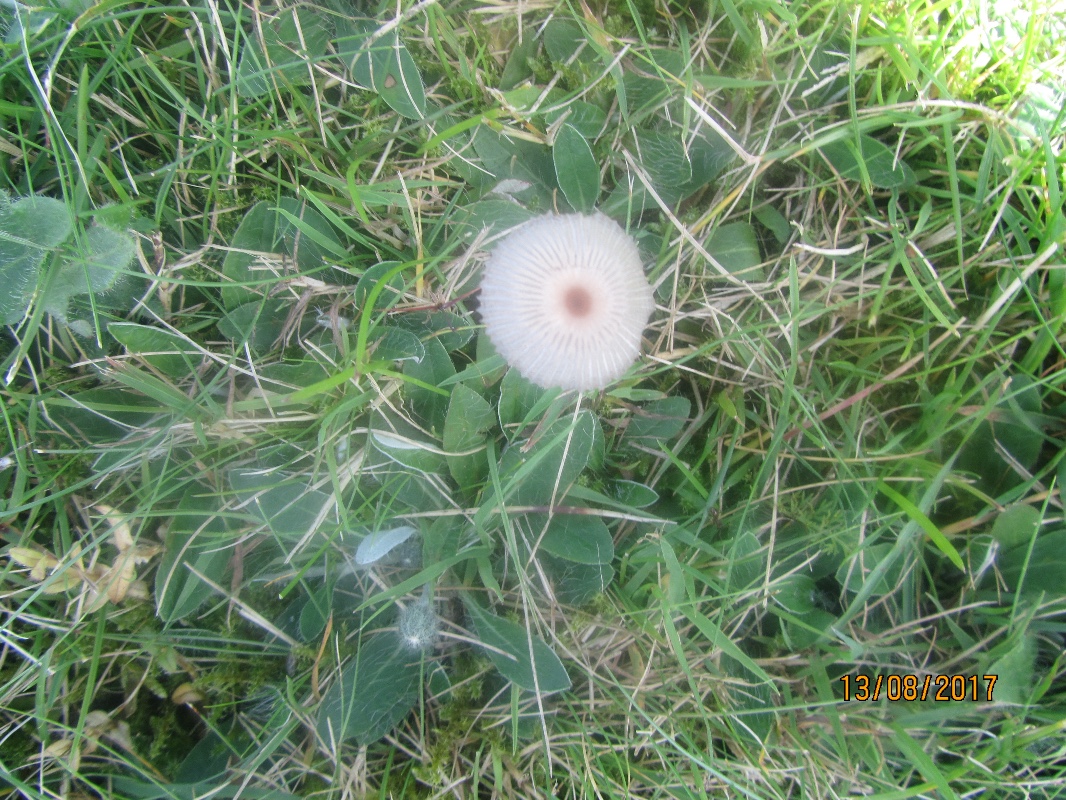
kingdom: Fungi
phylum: Basidiomycota
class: Agaricomycetes
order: Agaricales
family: Psathyrellaceae
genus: Parasola
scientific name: Parasola
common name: hjulhat
